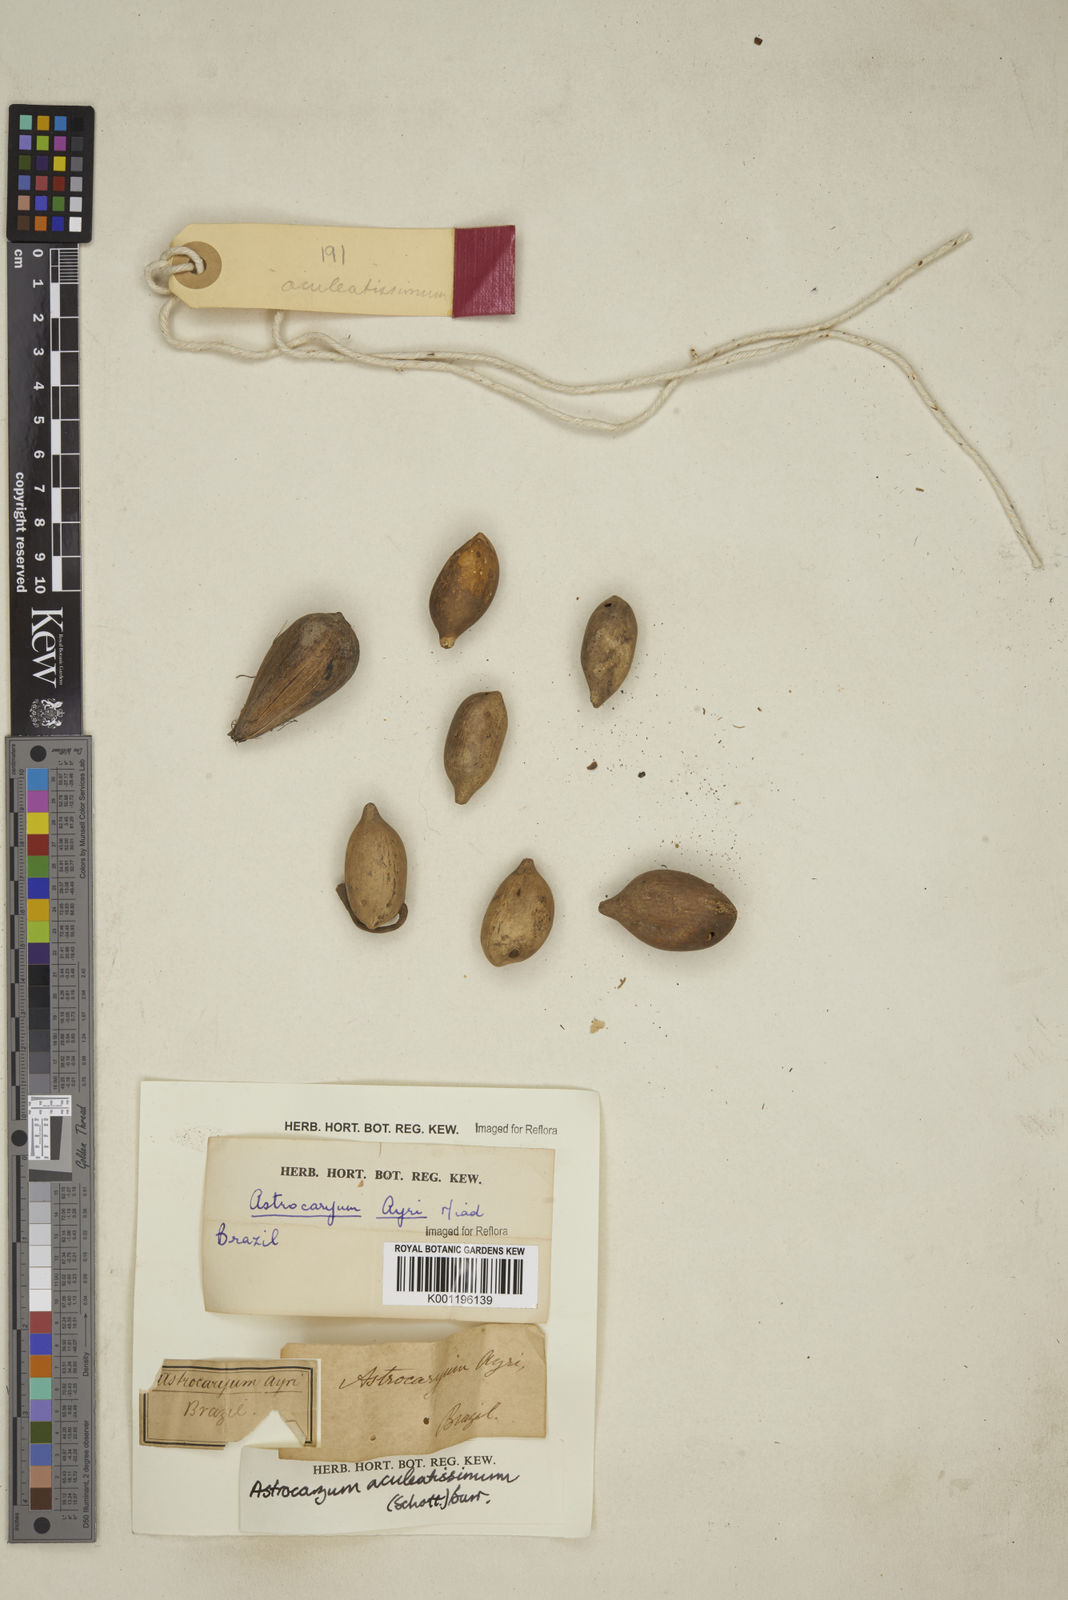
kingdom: Plantae
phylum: Tracheophyta
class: Liliopsida
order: Arecales
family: Arecaceae
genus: Astrocaryum
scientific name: Astrocaryum aculeatissimum
